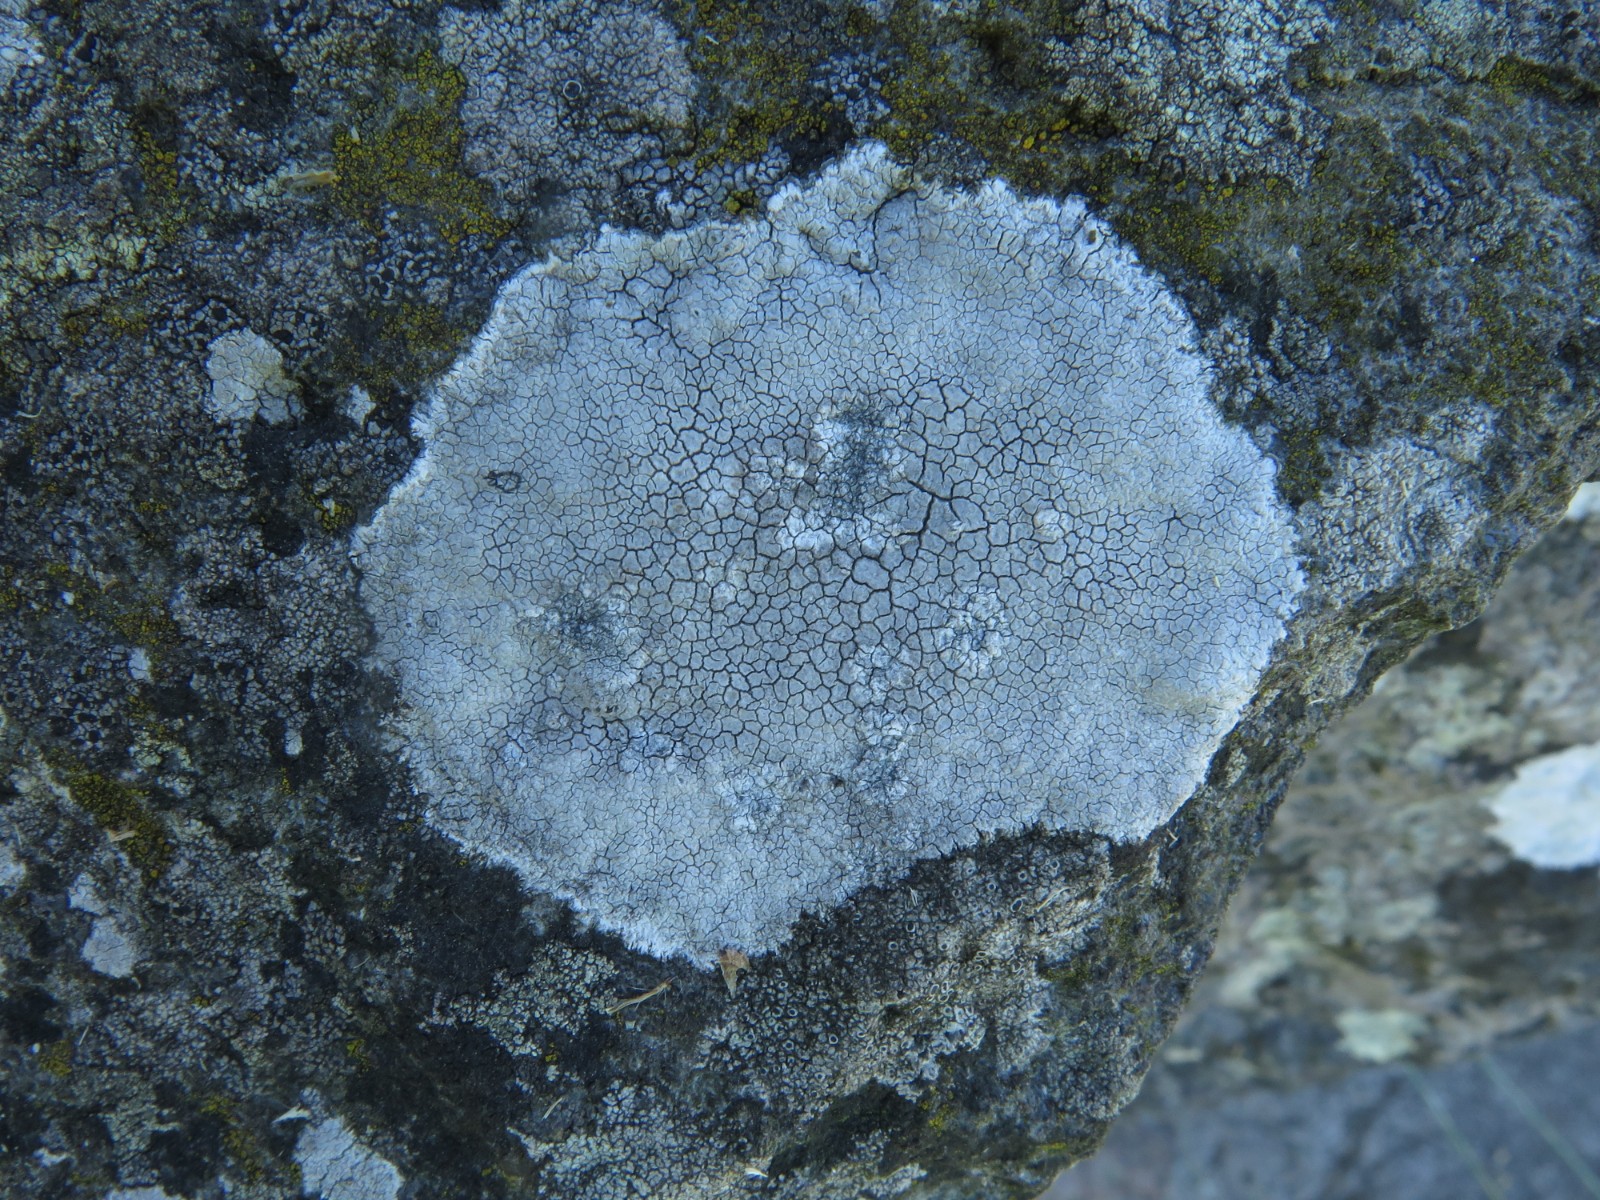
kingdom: Fungi
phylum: Ascomycota
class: Lecanoromycetes
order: Lecanorales
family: Lecanoraceae
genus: Glaucomaria
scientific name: Glaucomaria rupicola
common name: stengærde-kantskivelav
